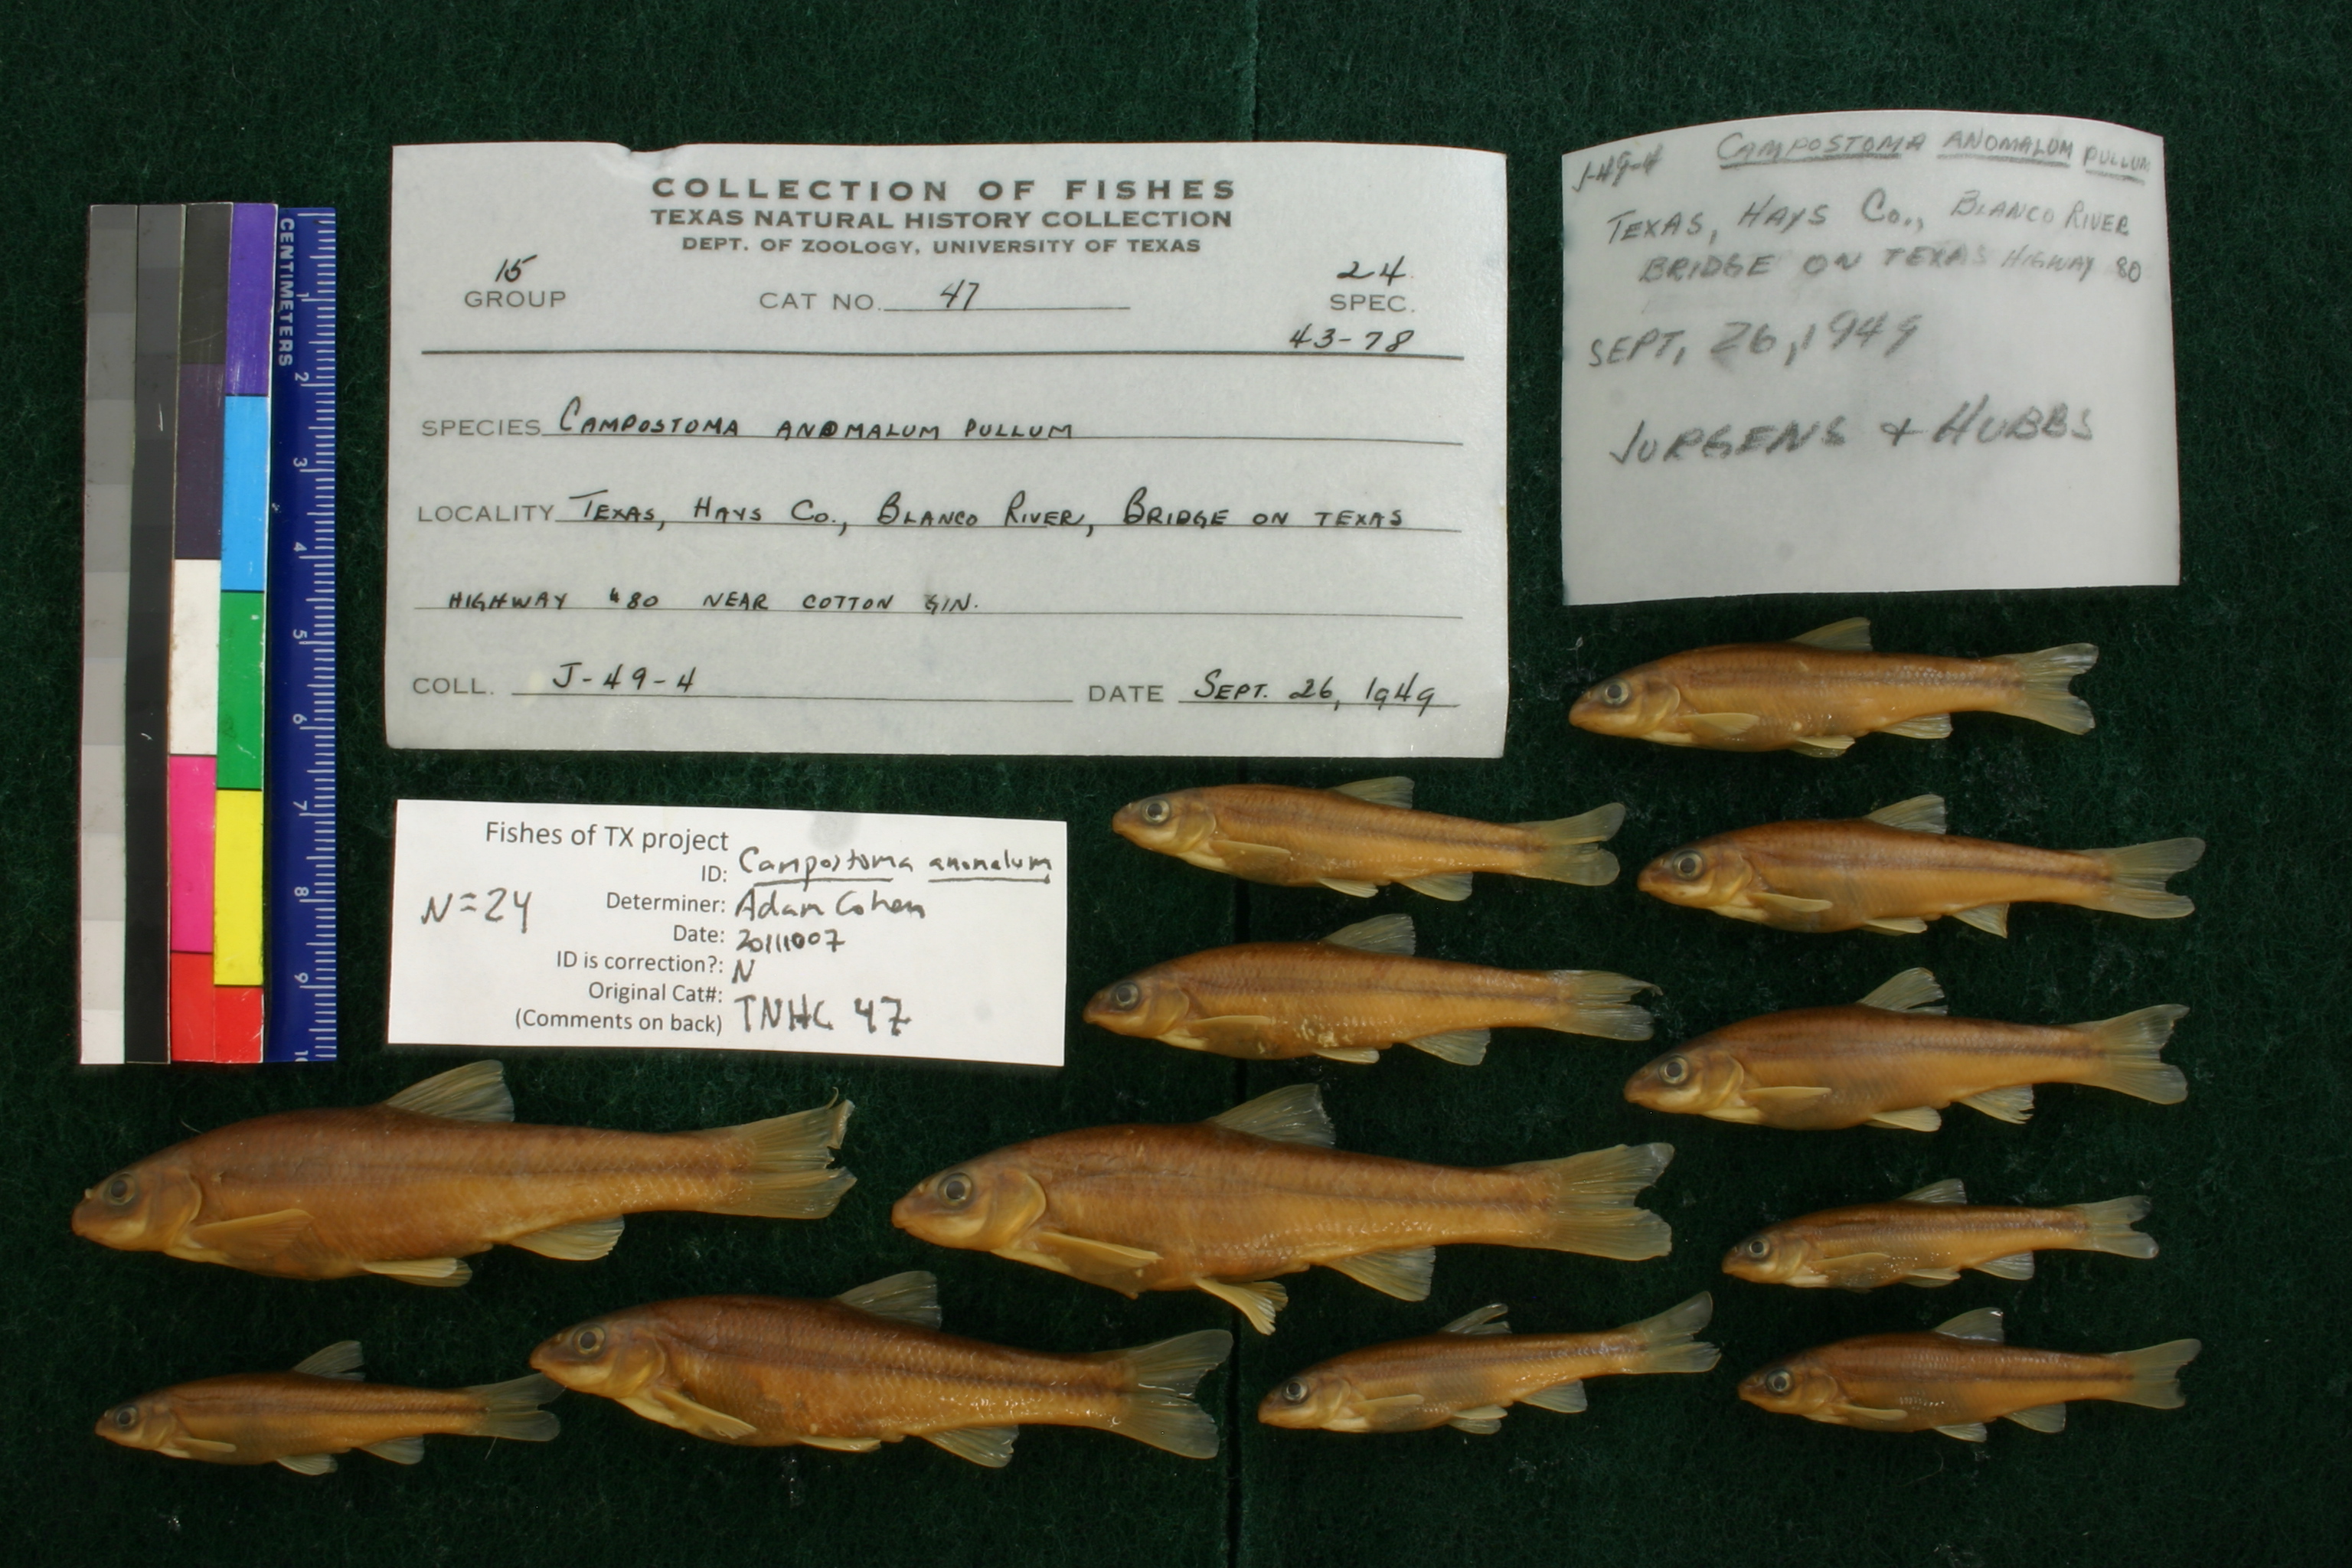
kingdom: Animalia
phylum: Chordata
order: Cypriniformes
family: Cyprinidae
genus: Campostoma
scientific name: Campostoma pullum
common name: Central stoneroller
